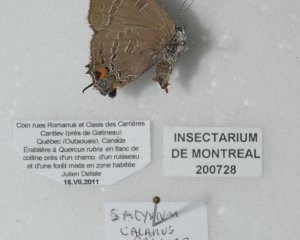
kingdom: Animalia
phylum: Arthropoda
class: Insecta
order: Lepidoptera
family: Lycaenidae
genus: Satyrium
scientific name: Satyrium calanus
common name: Banded Hairstreak
